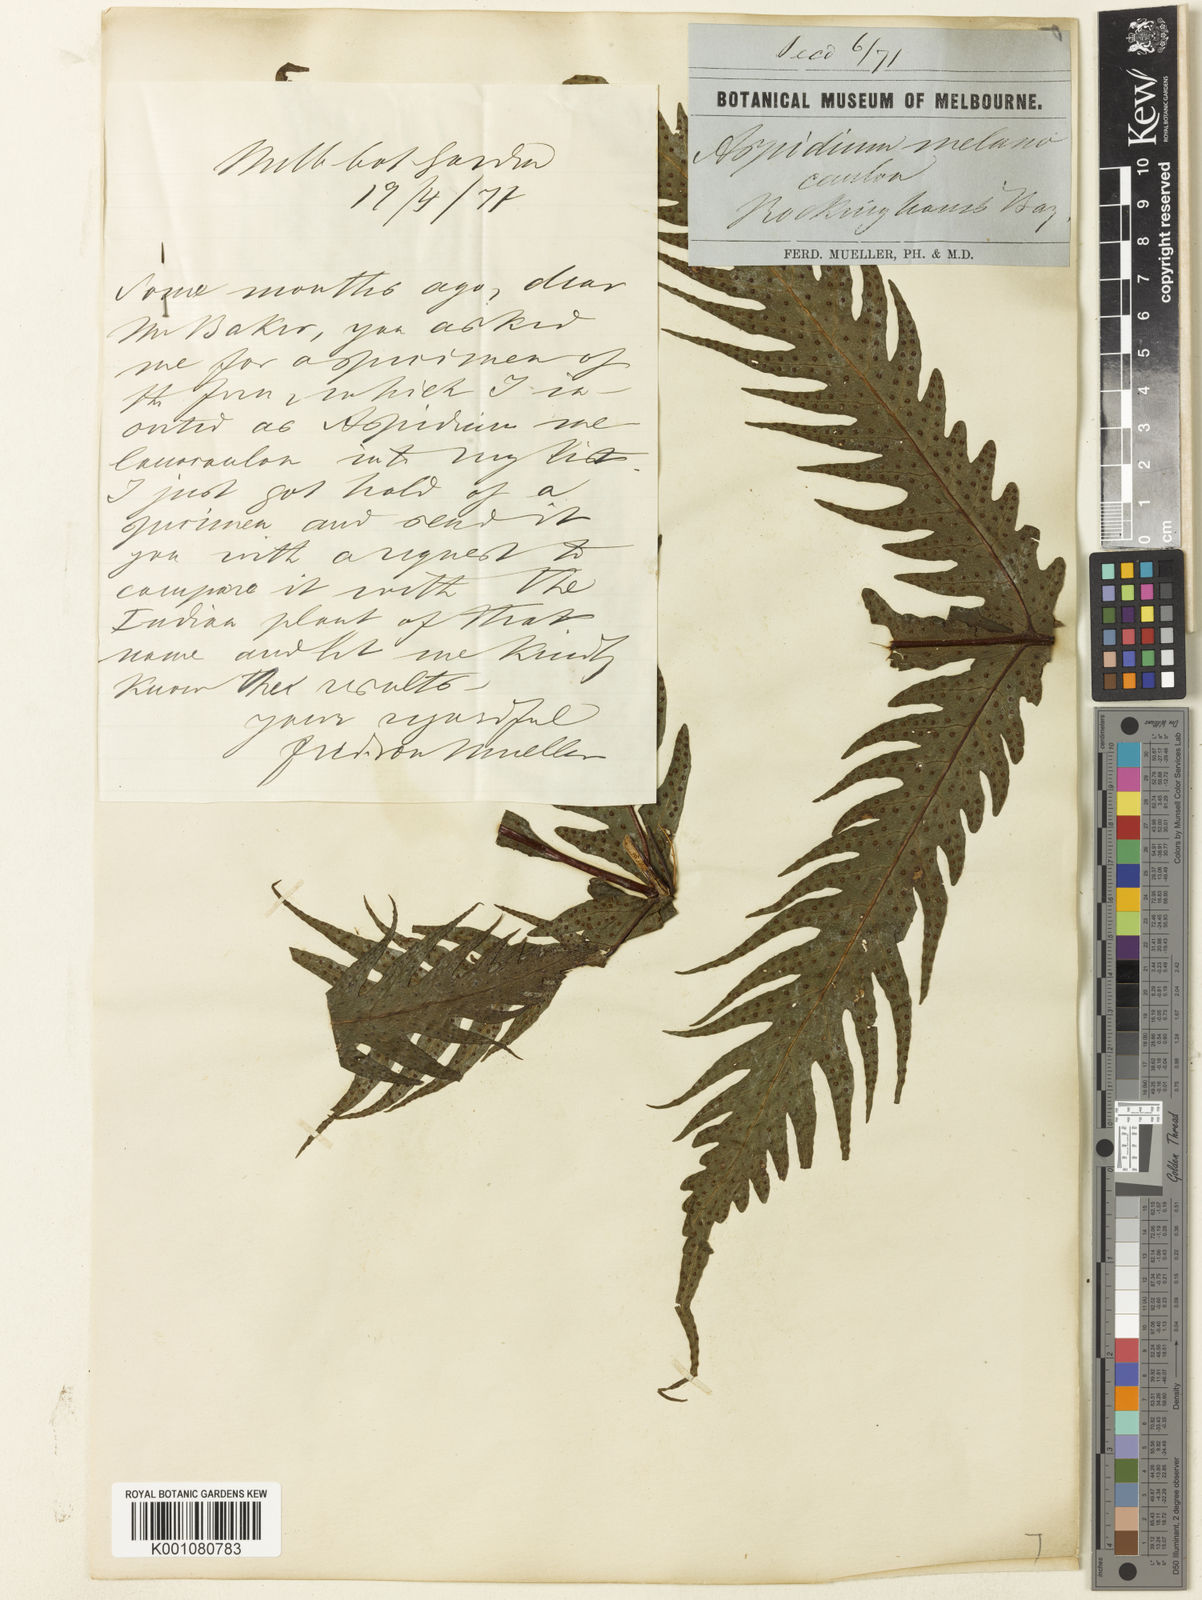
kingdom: Plantae
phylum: Tracheophyta
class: Polypodiopsida
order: Polypodiales
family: Tectariaceae
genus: Tectaria
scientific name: Tectaria confluens
